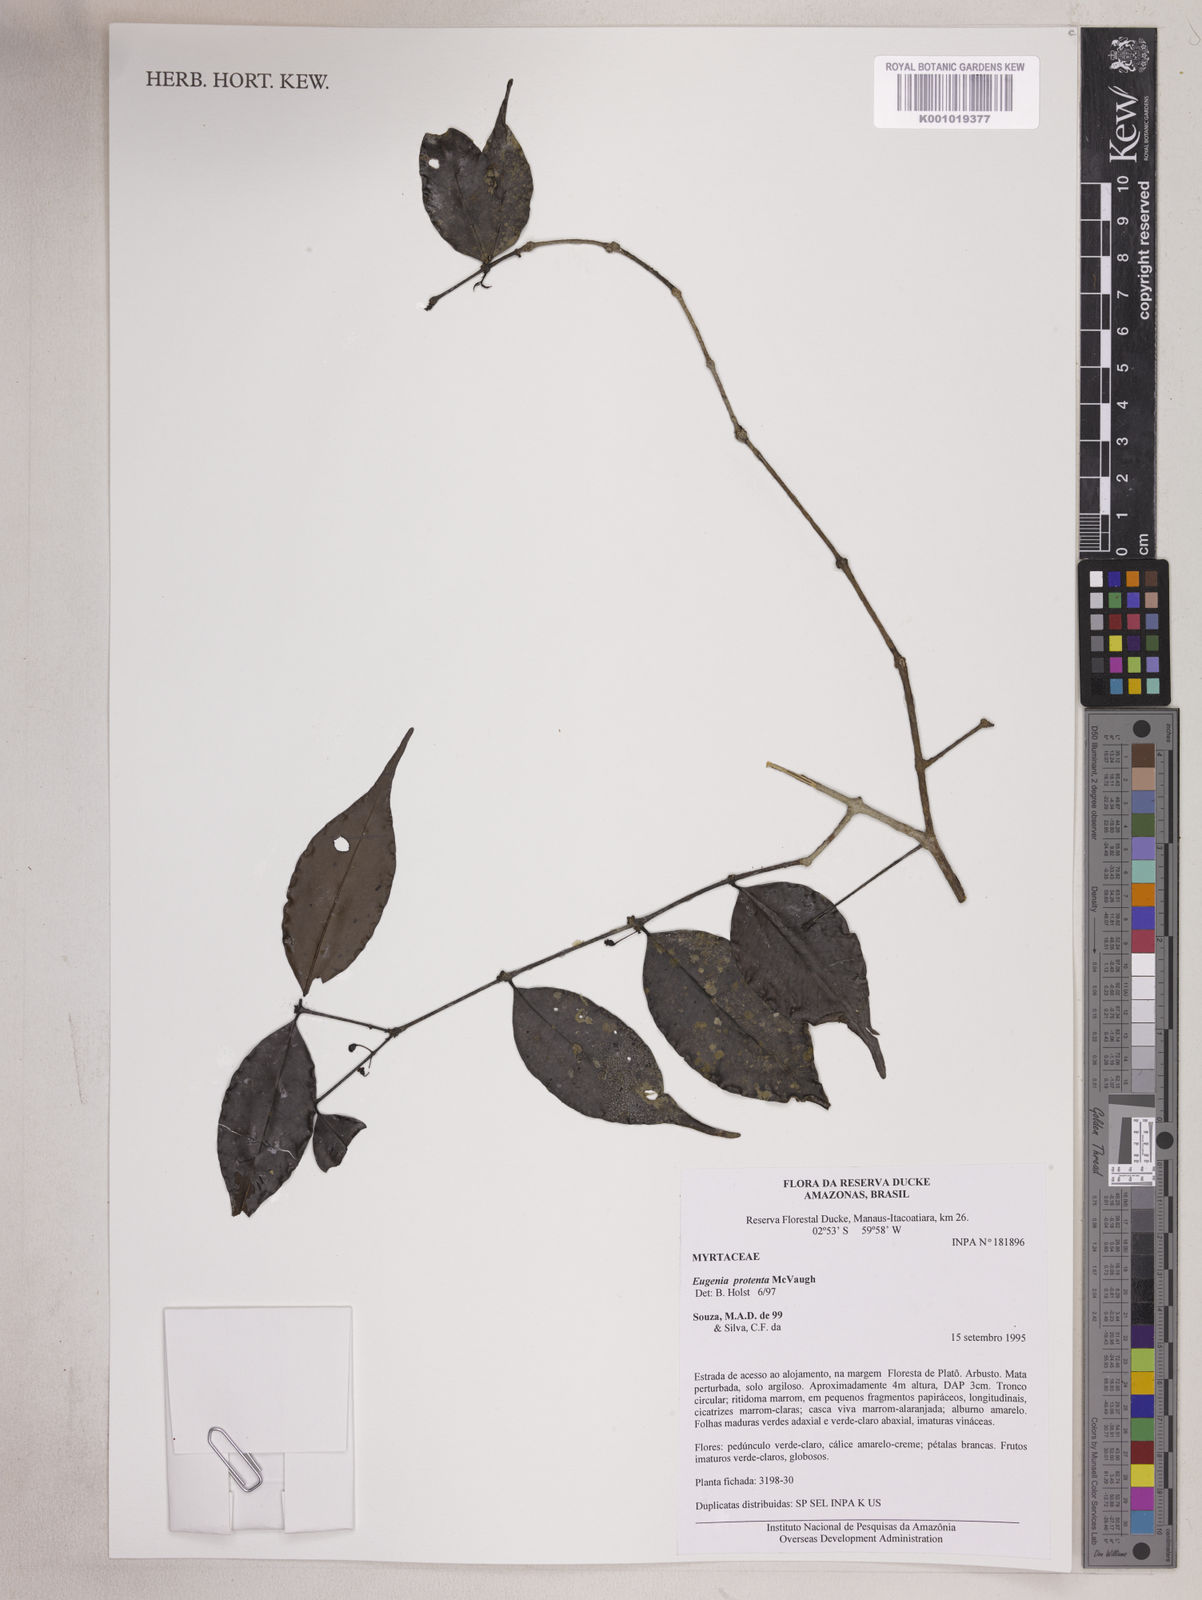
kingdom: Plantae
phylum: Tracheophyta
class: Magnoliopsida
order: Myrtales
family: Myrtaceae
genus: Eugenia
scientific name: Eugenia protenta
